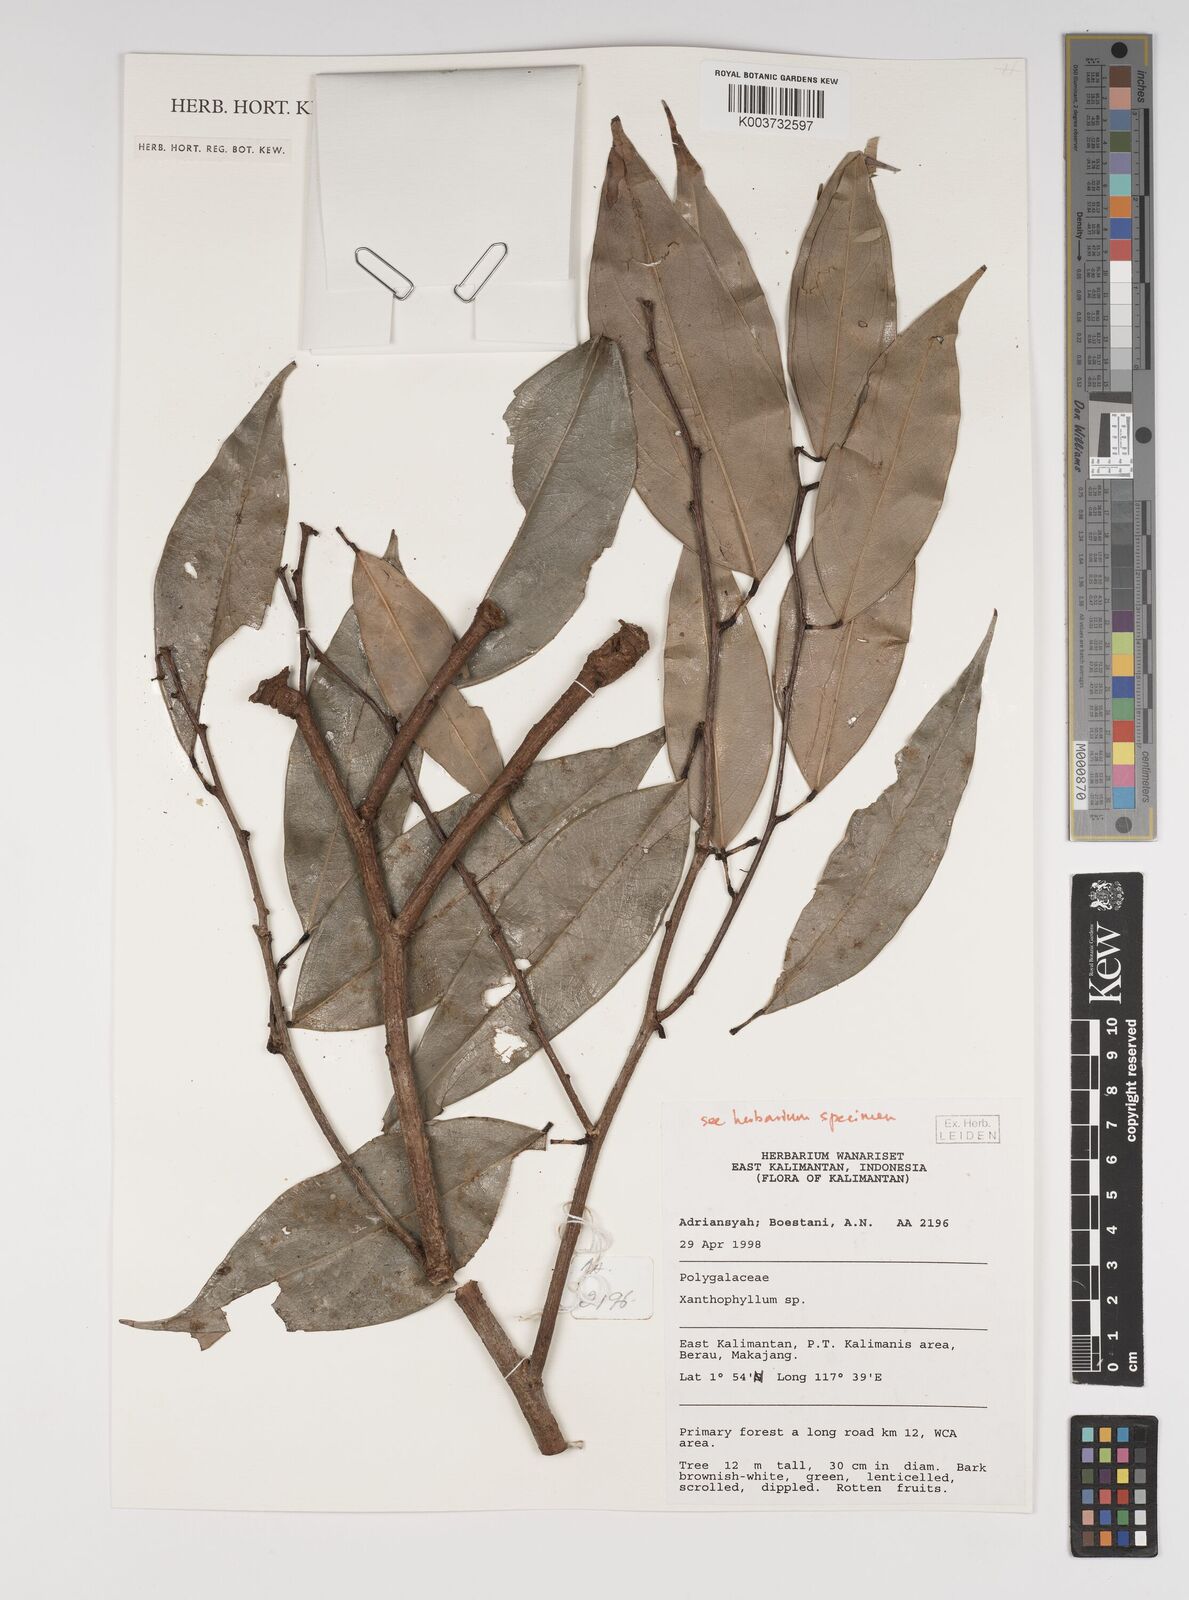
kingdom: Plantae
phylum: Tracheophyta
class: Magnoliopsida
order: Fabales
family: Polygalaceae
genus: Xanthophyllum
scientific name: Xanthophyllum
